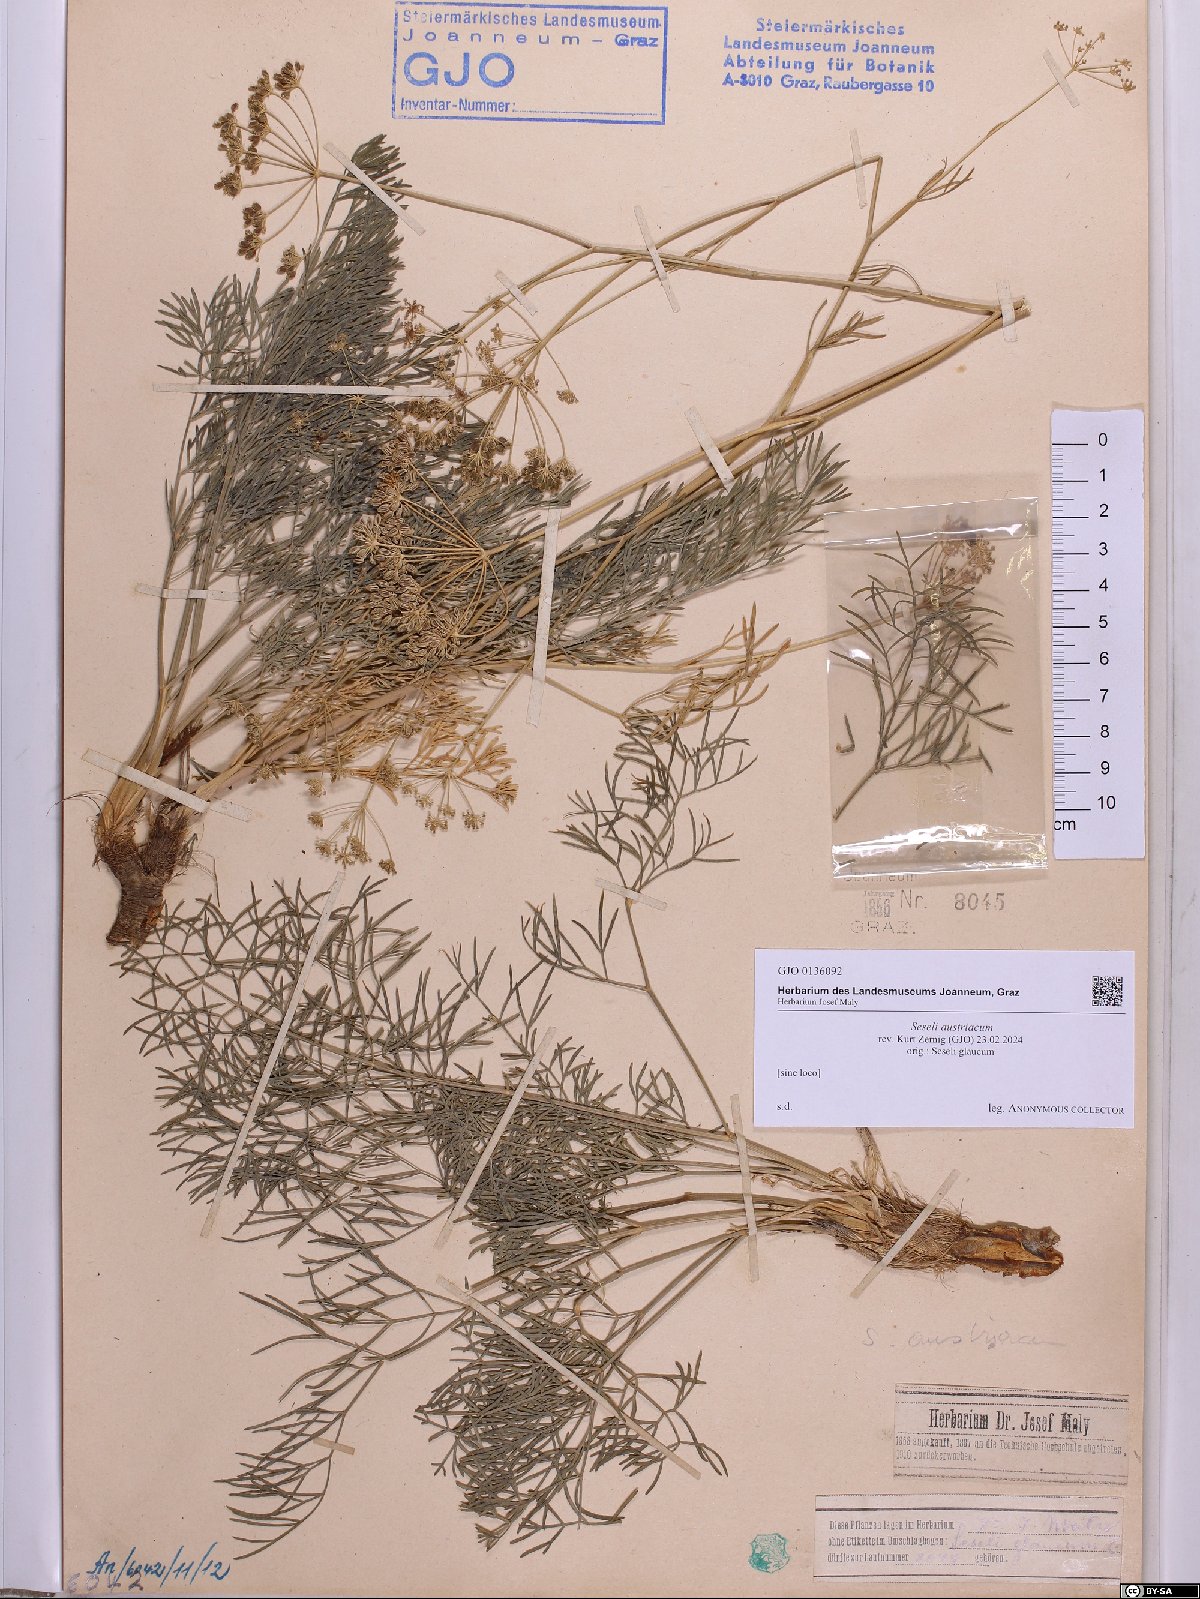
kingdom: Plantae
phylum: Tracheophyta
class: Magnoliopsida
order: Apiales
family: Apiaceae
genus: Seseli
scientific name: Seseli austriacum
